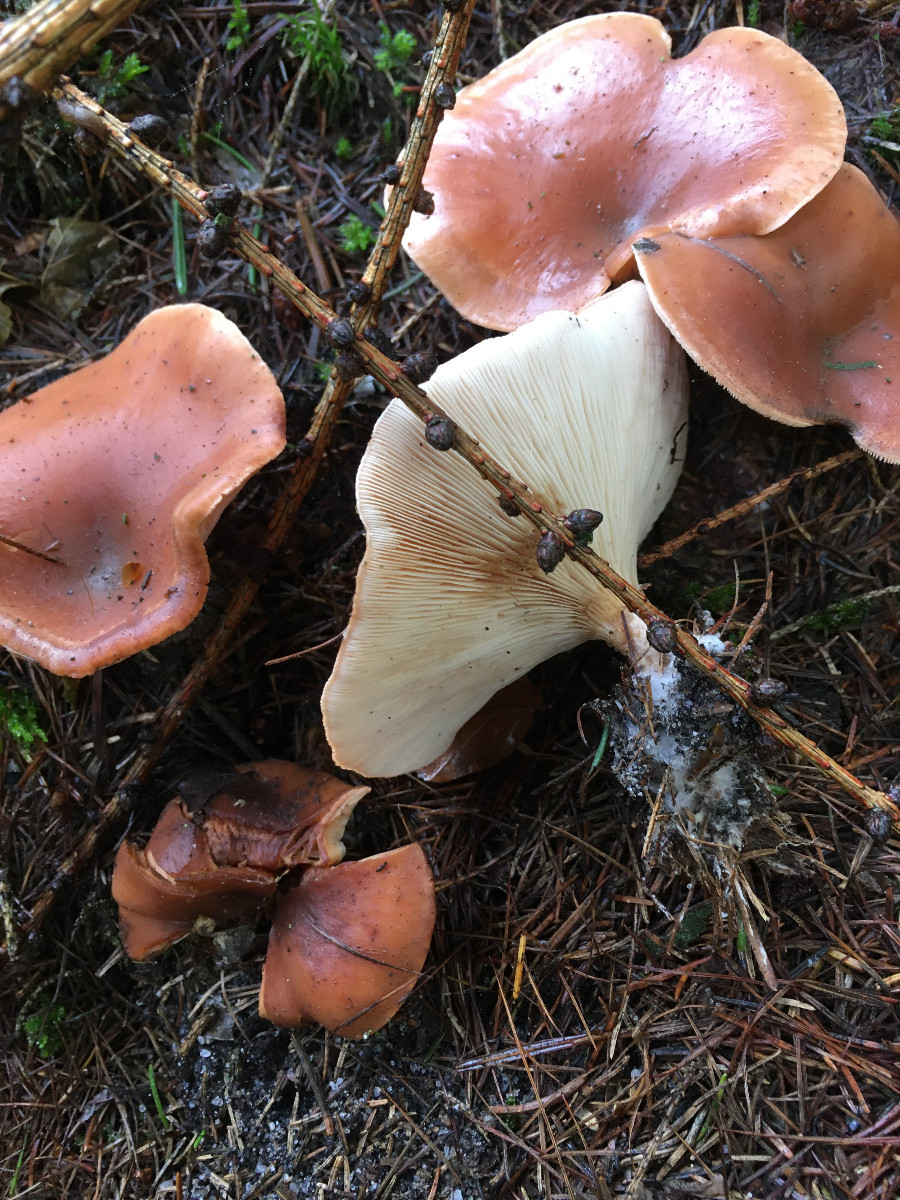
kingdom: Fungi
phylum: Basidiomycota
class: Agaricomycetes
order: Agaricales
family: Tricholomataceae
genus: Paralepista
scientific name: Paralepista flaccida
